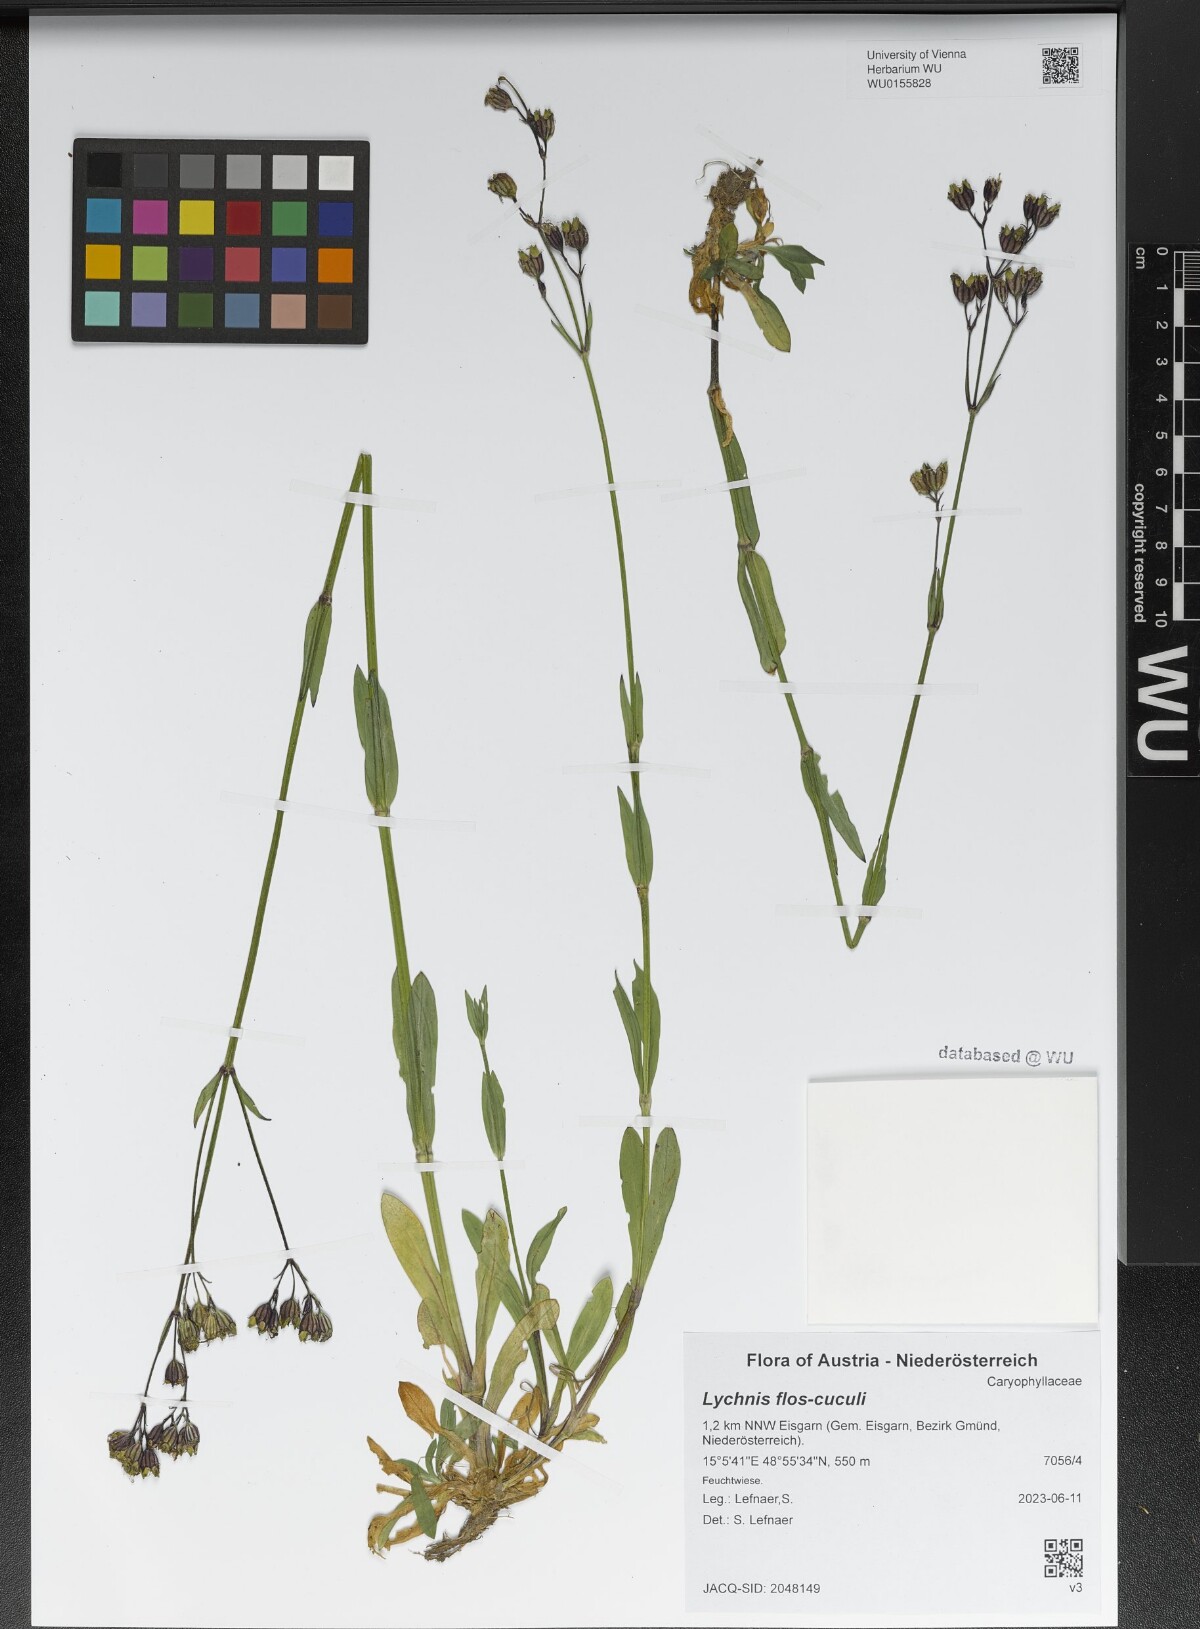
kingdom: Plantae
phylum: Tracheophyta
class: Magnoliopsida
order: Caryophyllales
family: Caryophyllaceae
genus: Silene
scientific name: Silene flos-cuculi
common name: Ragged-robin
